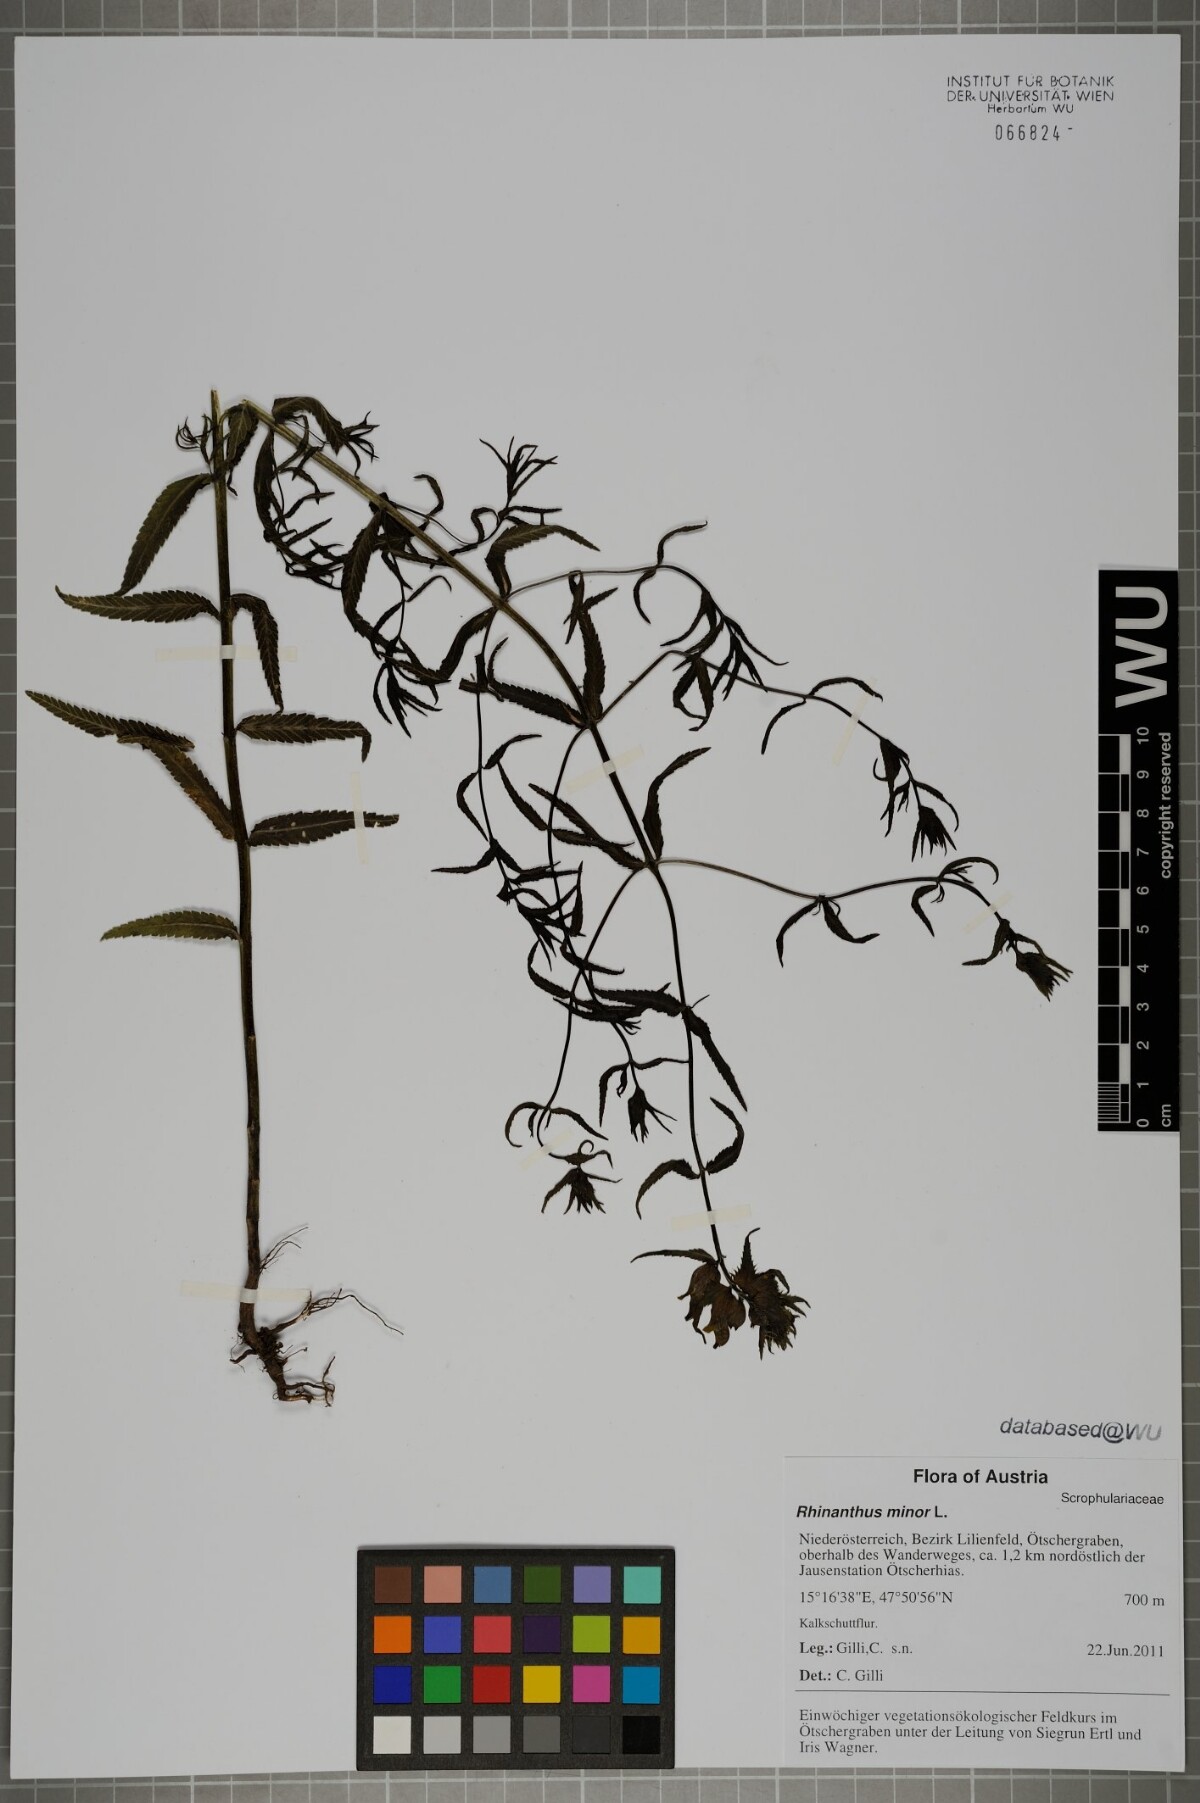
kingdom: Plantae
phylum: Tracheophyta
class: Magnoliopsida
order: Lamiales
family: Orobanchaceae
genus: Rhinanthus
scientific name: Rhinanthus glacialis
